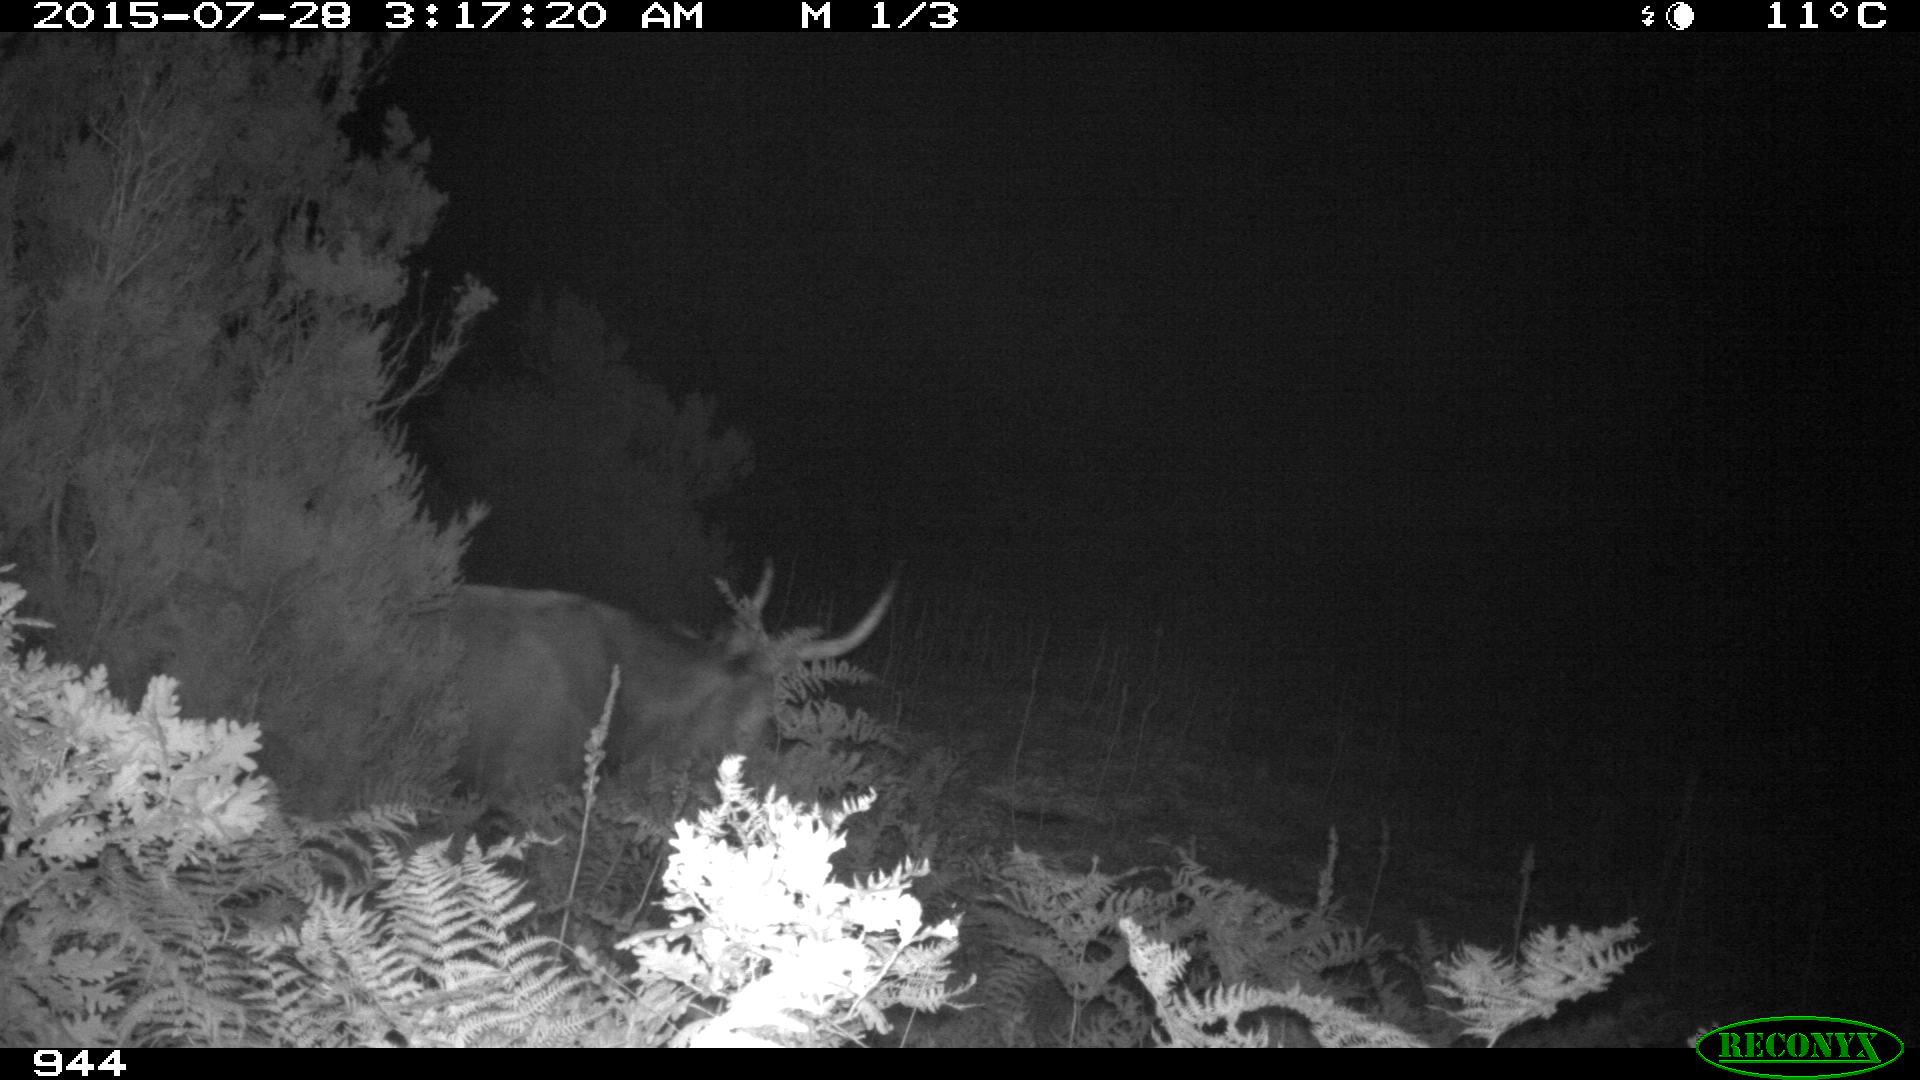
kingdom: Animalia
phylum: Chordata
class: Mammalia
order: Artiodactyla
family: Bovidae
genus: Bos
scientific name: Bos taurus
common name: Domesticated cattle
